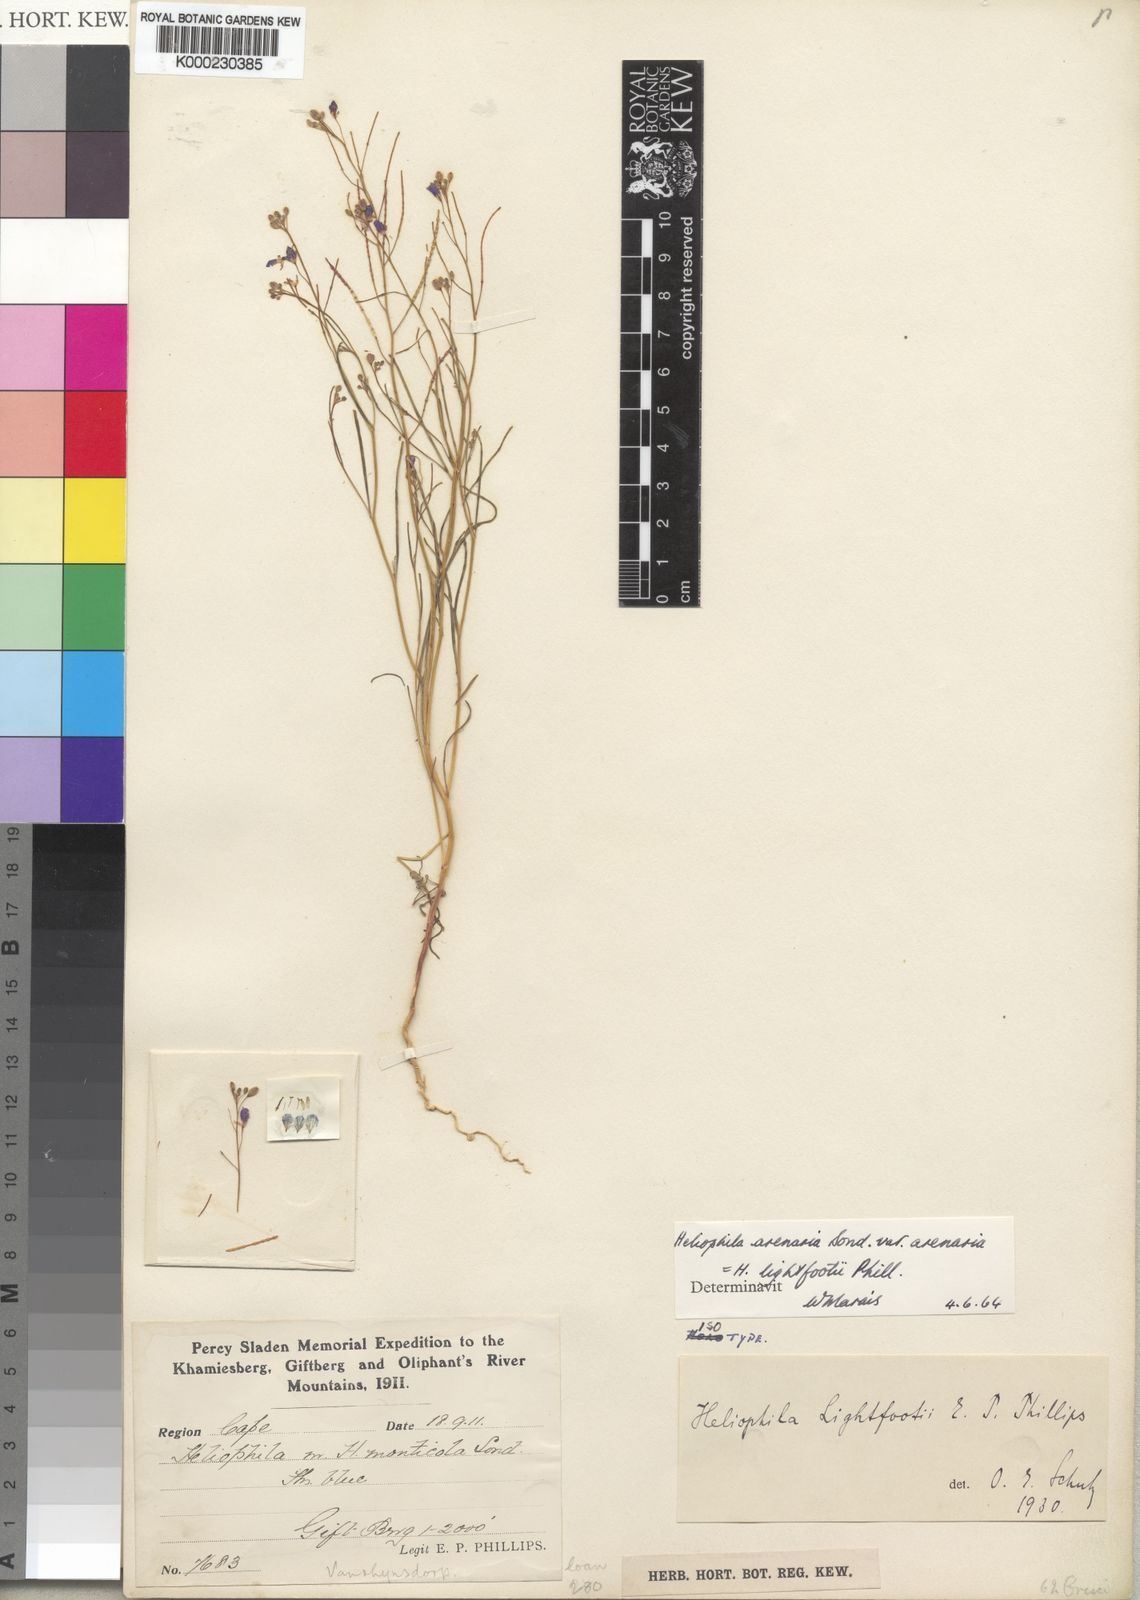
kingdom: Plantae
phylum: Tracheophyta
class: Magnoliopsida
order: Brassicales
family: Brassicaceae
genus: Heliophila
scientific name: Heliophila arenaria
